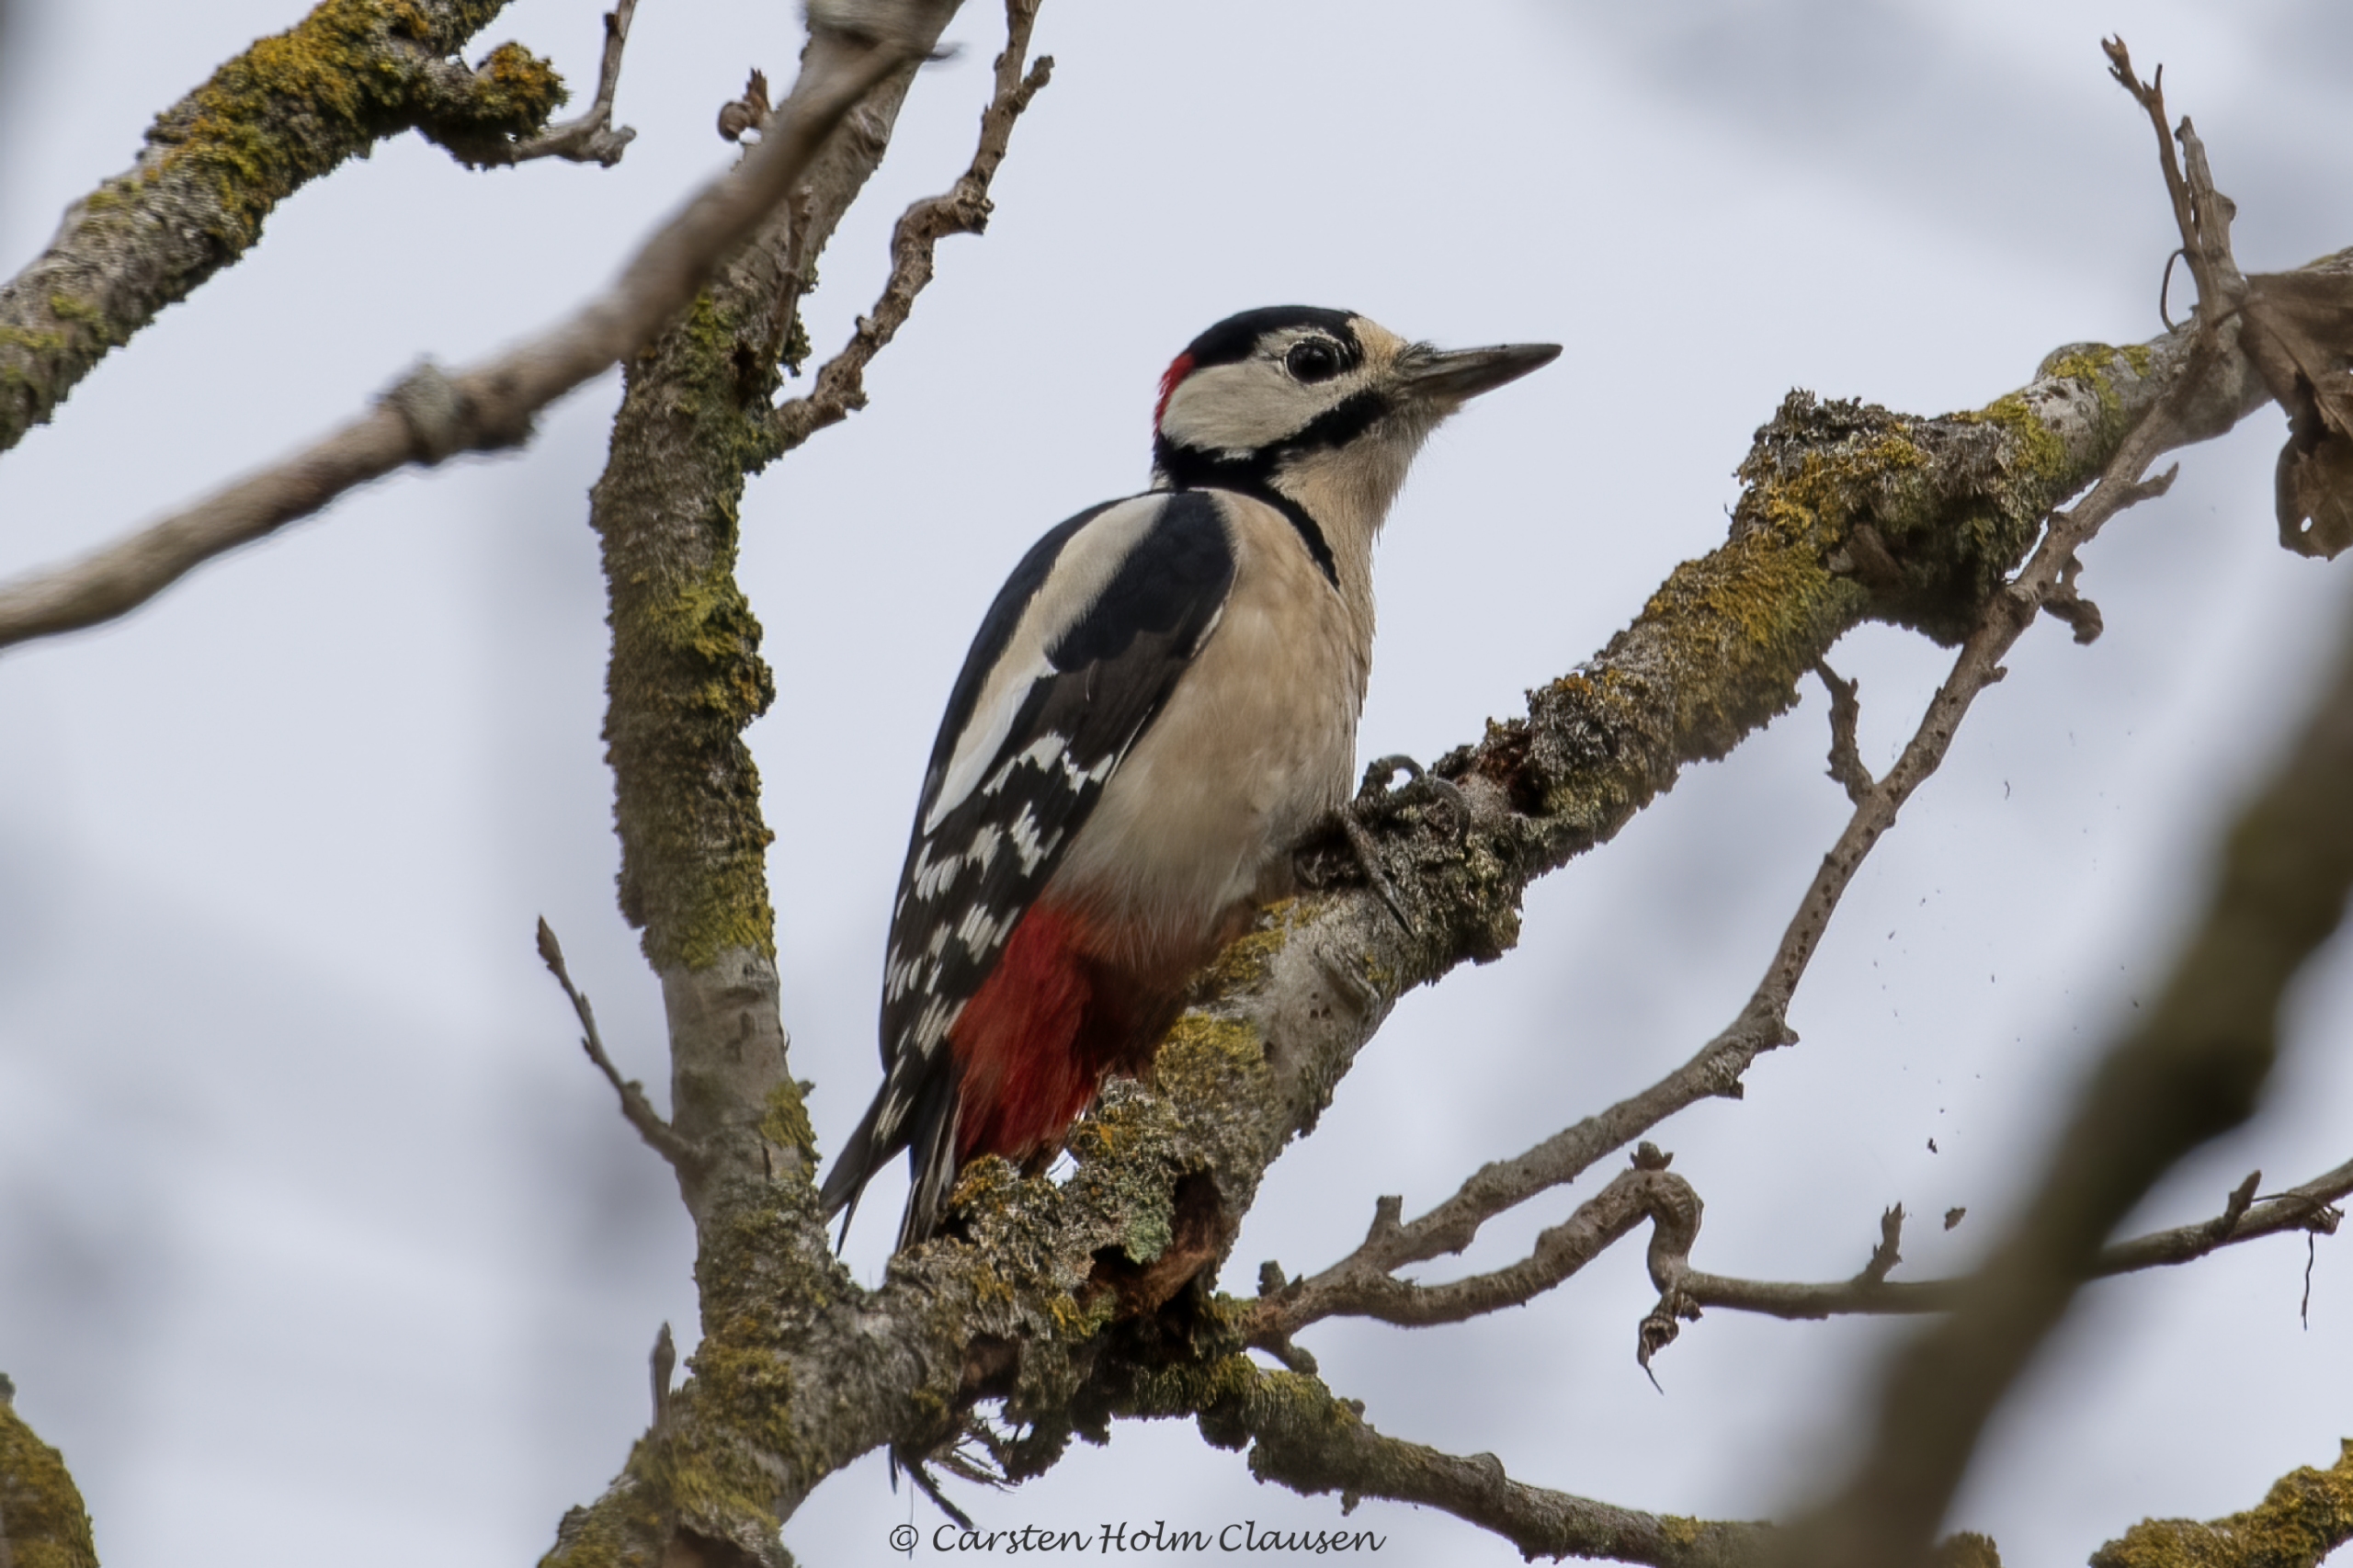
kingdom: Animalia
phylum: Chordata
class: Aves
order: Piciformes
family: Picidae
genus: Dendrocopos
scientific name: Dendrocopos major
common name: Stor flagspætte
